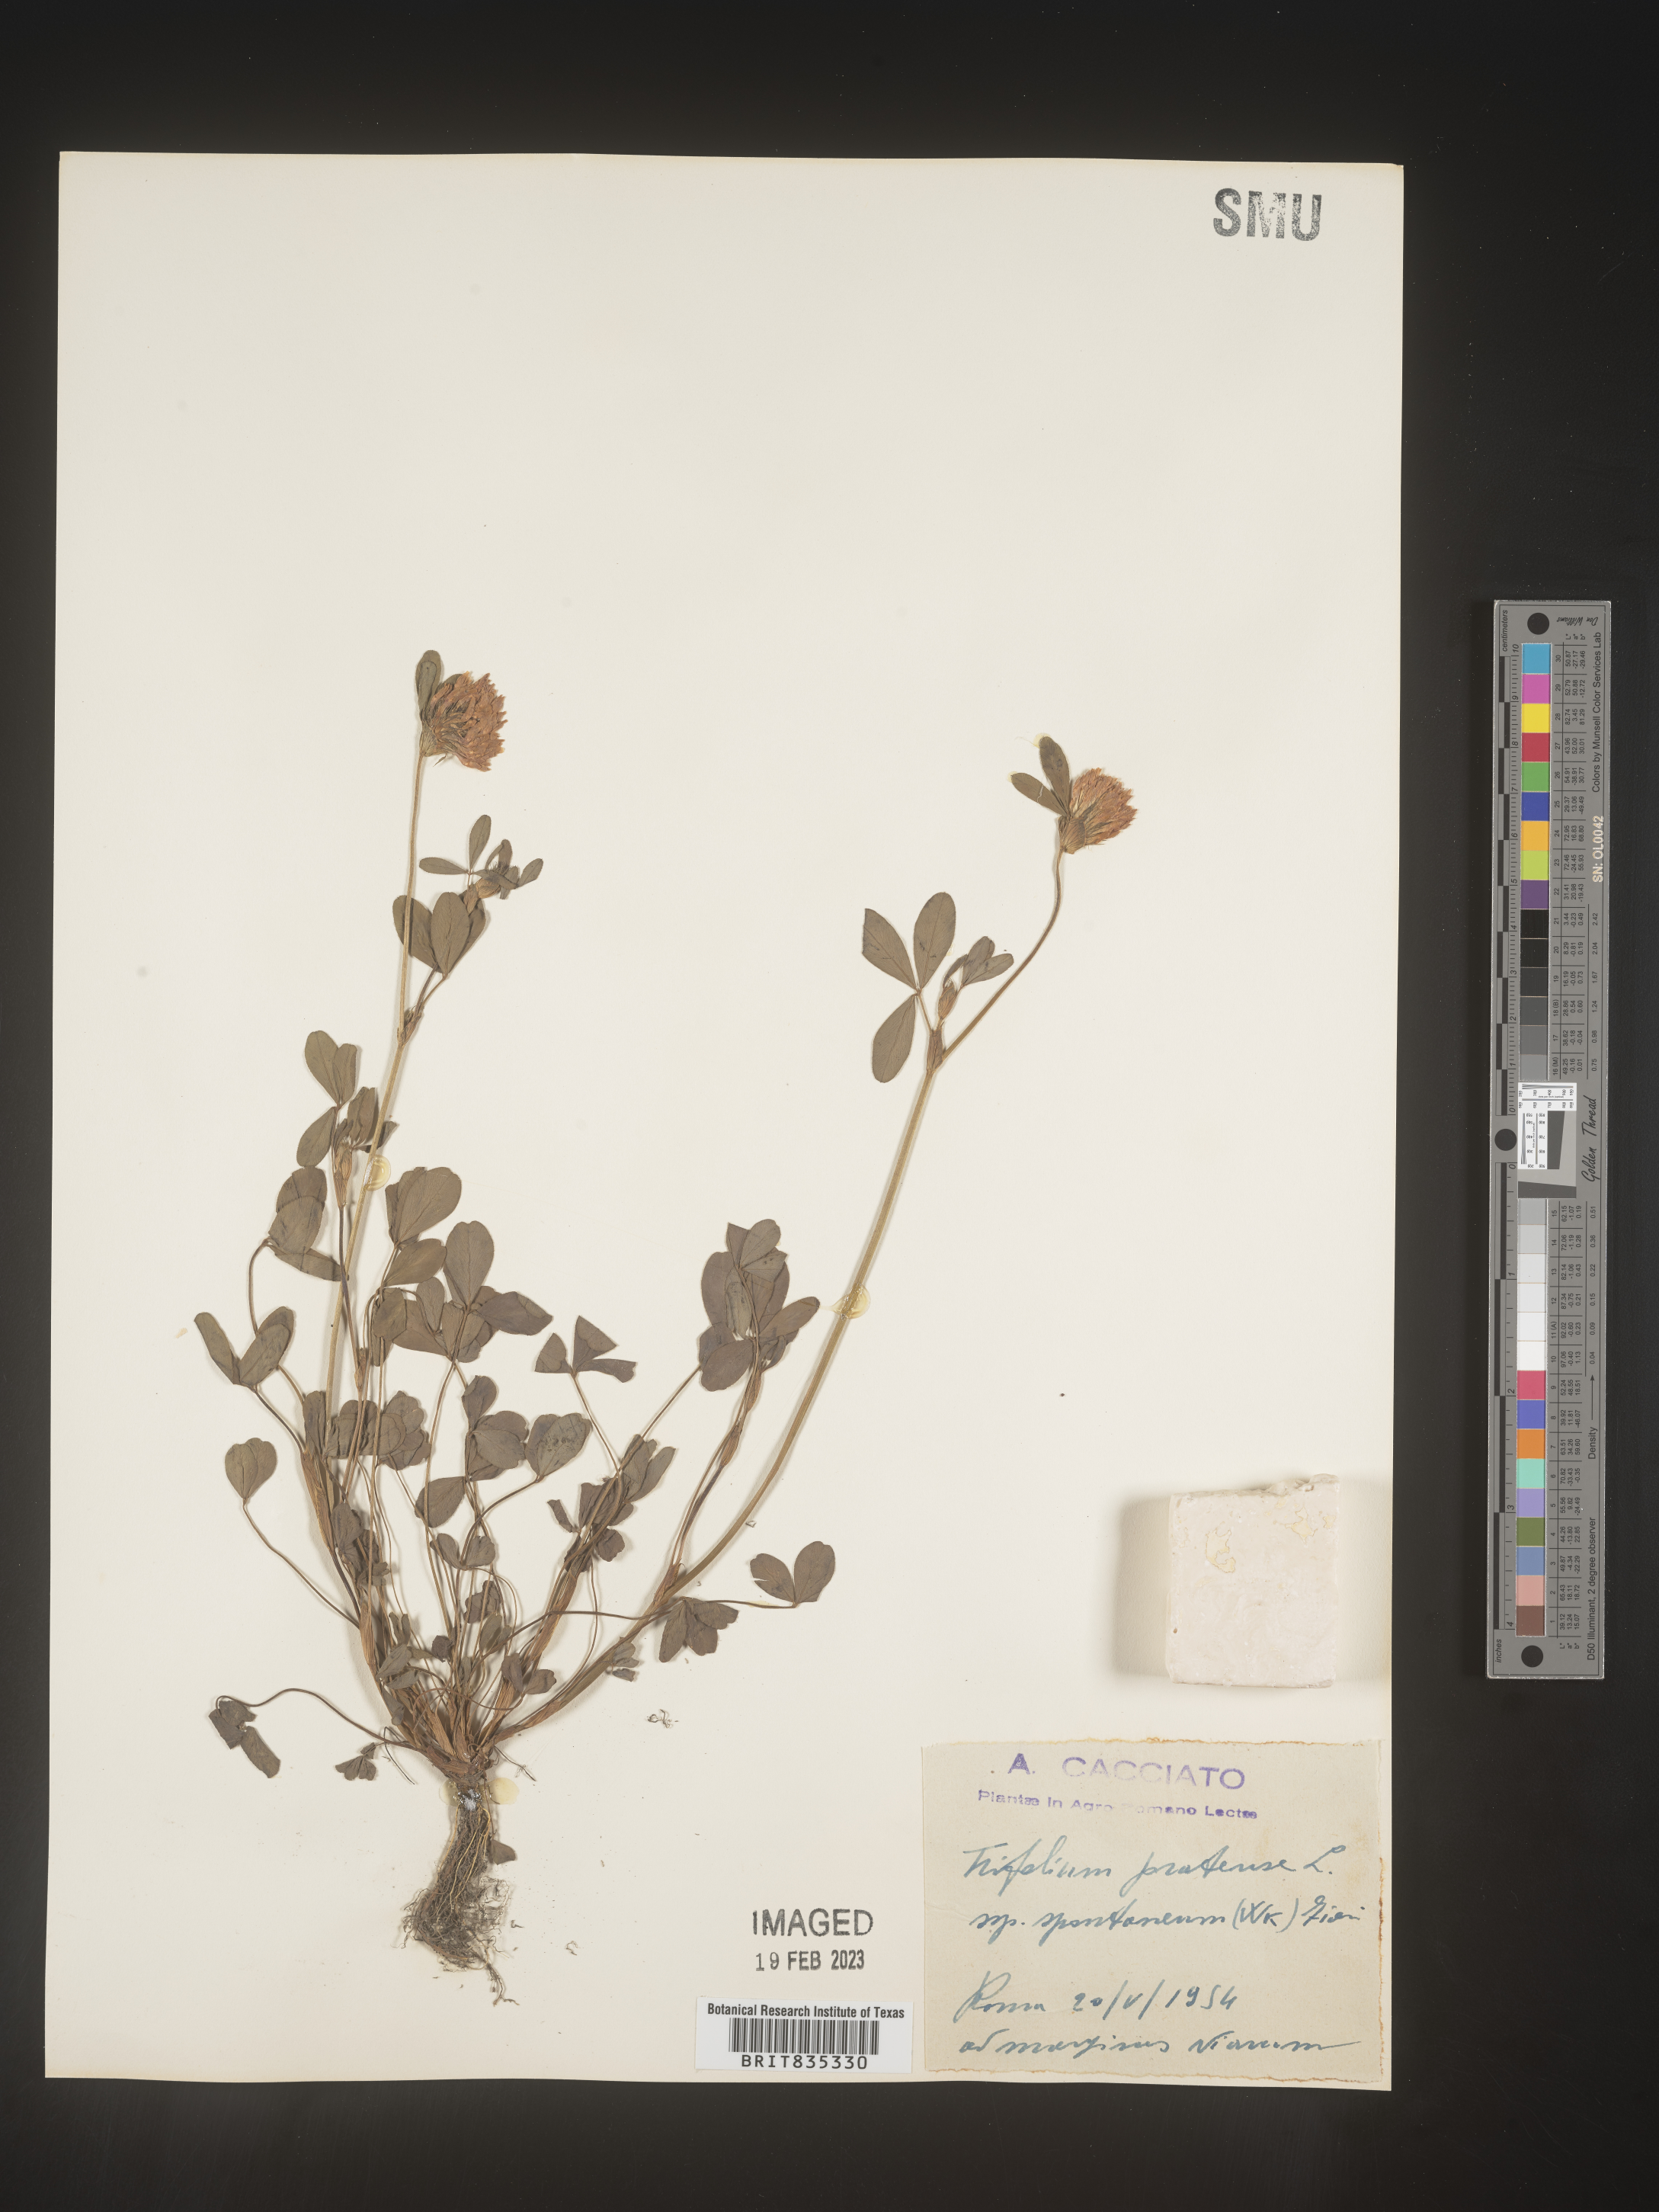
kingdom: Plantae
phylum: Tracheophyta
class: Magnoliopsida
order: Fabales
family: Fabaceae
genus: Trifolium
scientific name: Trifolium
